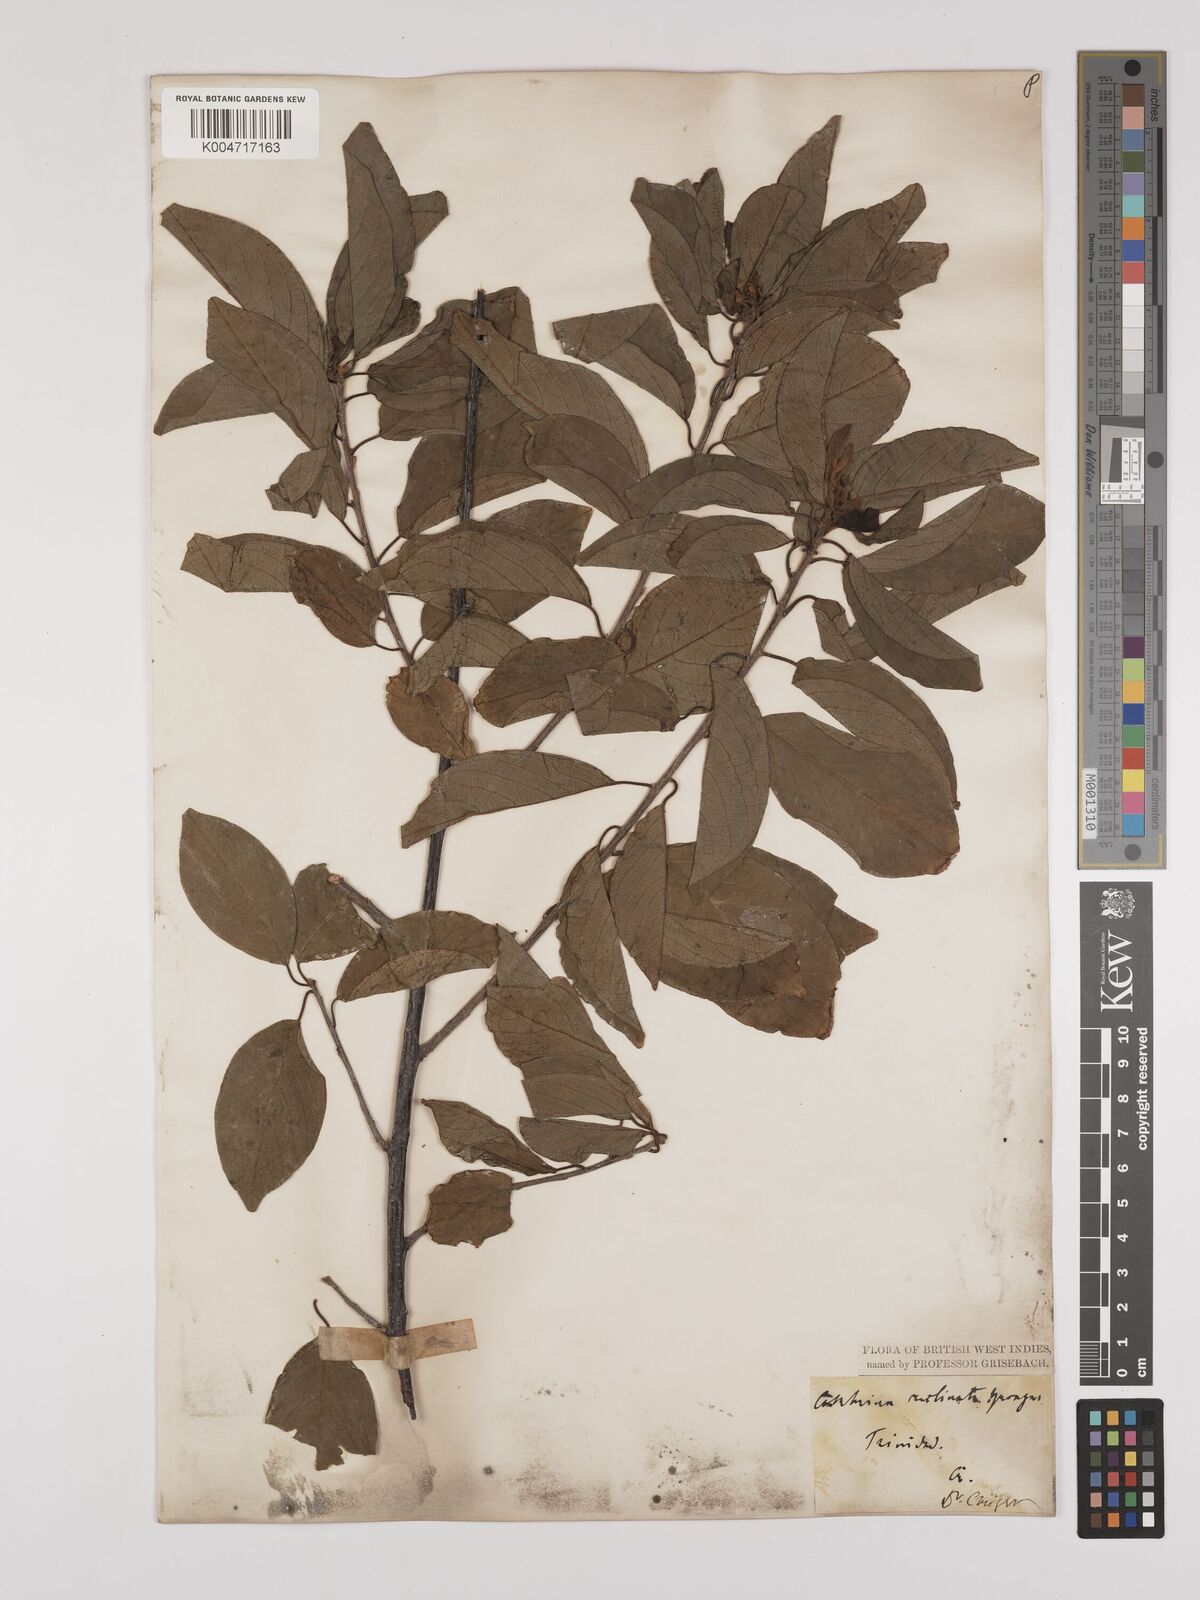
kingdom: Plantae
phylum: Tracheophyta
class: Magnoliopsida
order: Rosales
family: Rhamnaceae
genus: Colubrina
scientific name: Colubrina elliptica
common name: Soldierwood
